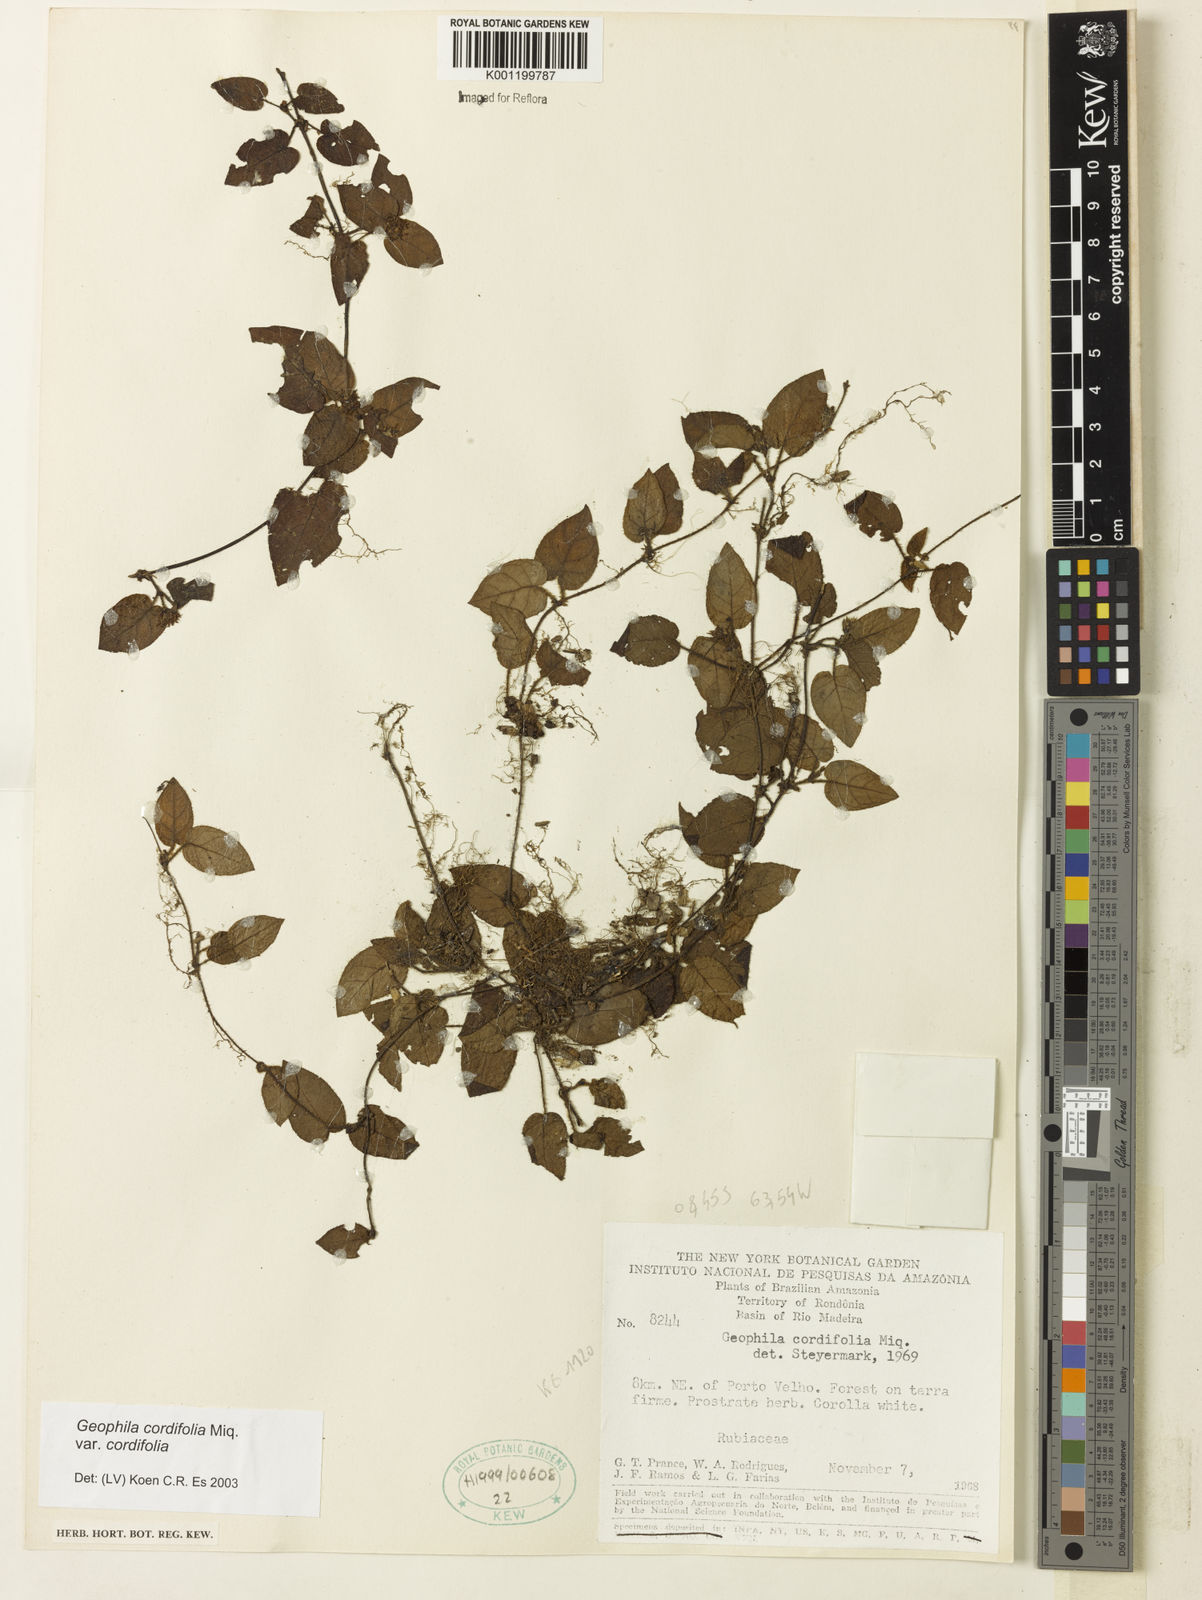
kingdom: Plantae
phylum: Tracheophyta
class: Magnoliopsida
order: Gentianales
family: Rubiaceae
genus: Geophila
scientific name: Geophila cordifolia
